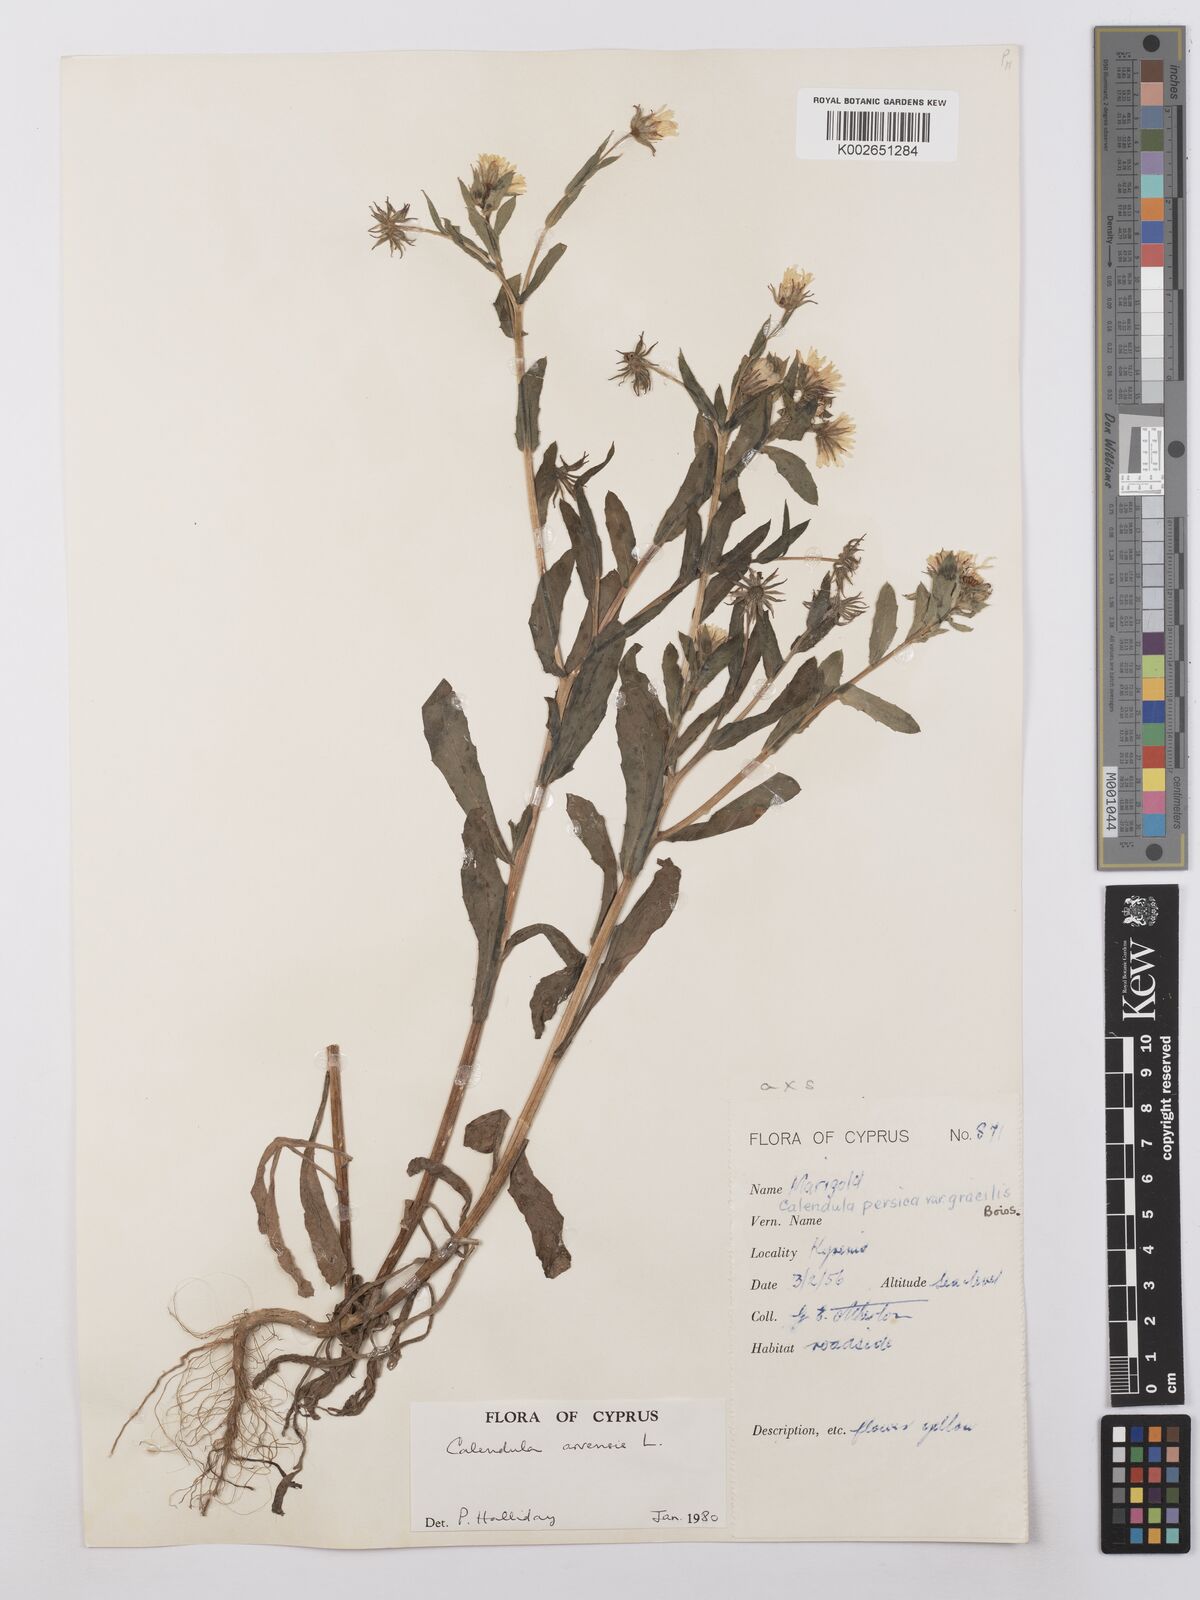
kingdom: Plantae
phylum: Tracheophyta
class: Magnoliopsida
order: Asterales
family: Asteraceae
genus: Calendula
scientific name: Calendula arvensis
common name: Field marigold
